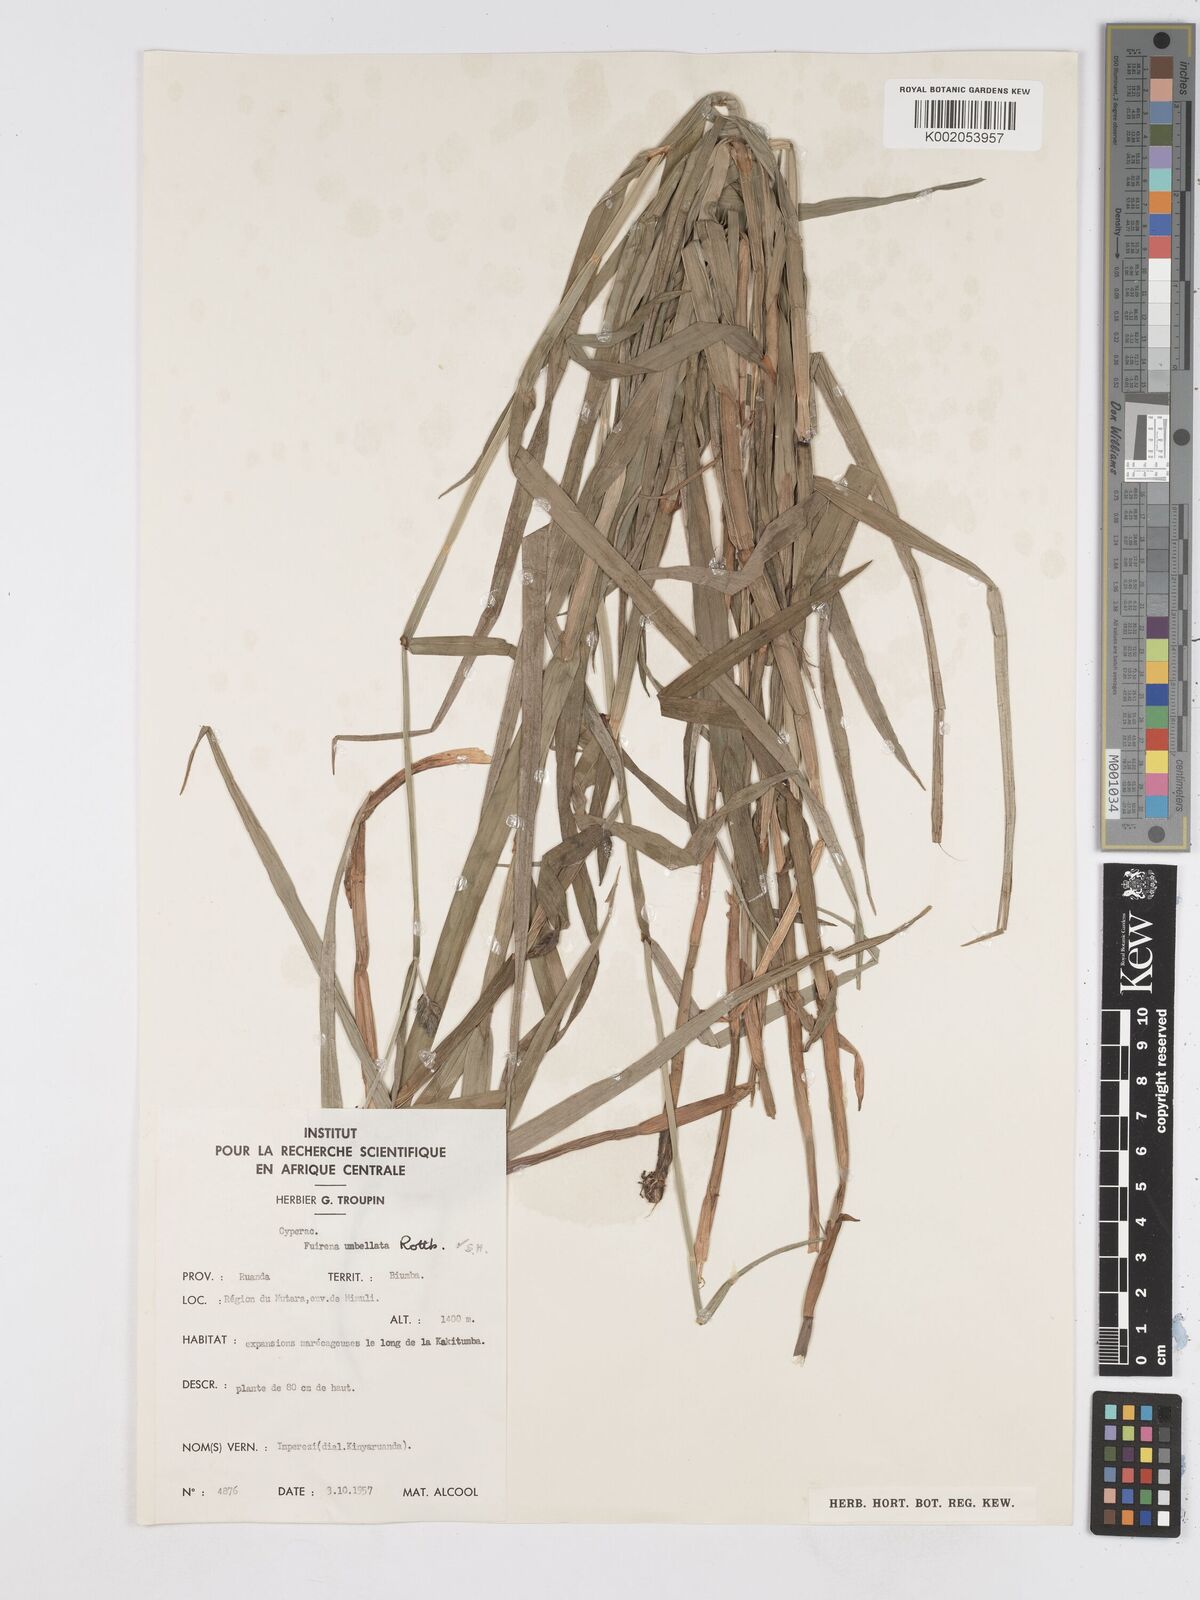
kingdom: Plantae
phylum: Tracheophyta
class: Liliopsida
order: Poales
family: Cyperaceae
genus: Fuirena
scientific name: Fuirena umbellata
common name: Yefen
